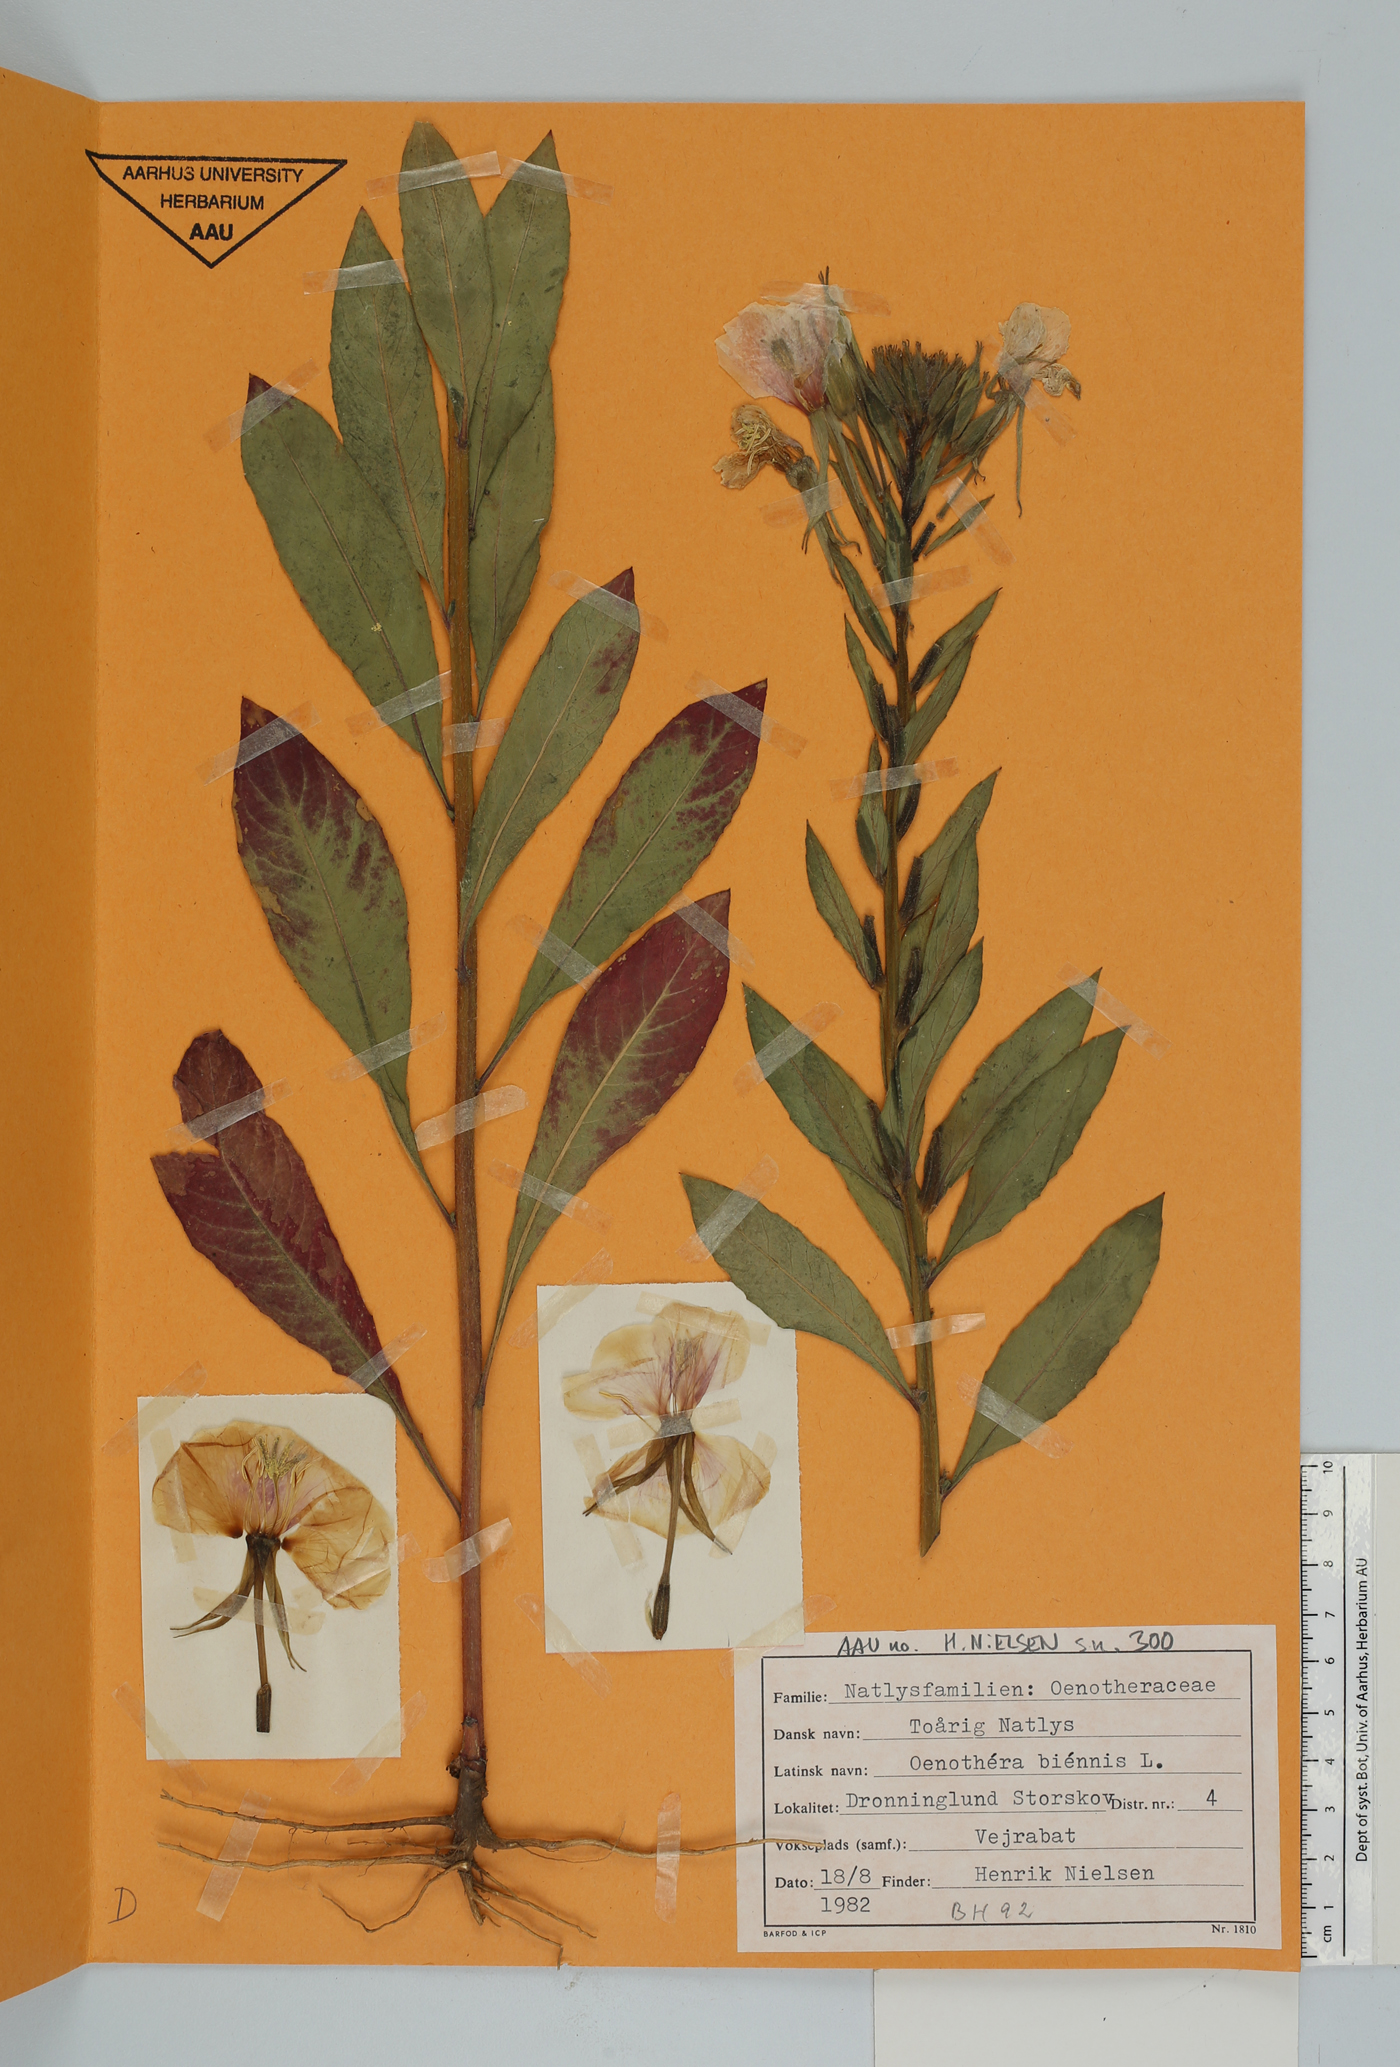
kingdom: Plantae
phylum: Tracheophyta
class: Magnoliopsida
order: Myrtales
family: Onagraceae
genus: Oenothera
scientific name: Oenothera biennis
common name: Common evening-primrose
